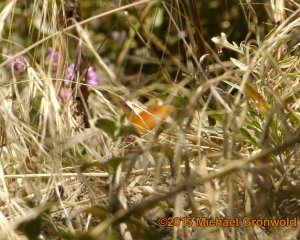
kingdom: Animalia
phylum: Arthropoda
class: Insecta
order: Lepidoptera
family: Nymphalidae
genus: Dione
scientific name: Dione vanillae
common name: Gulf Fritillary
